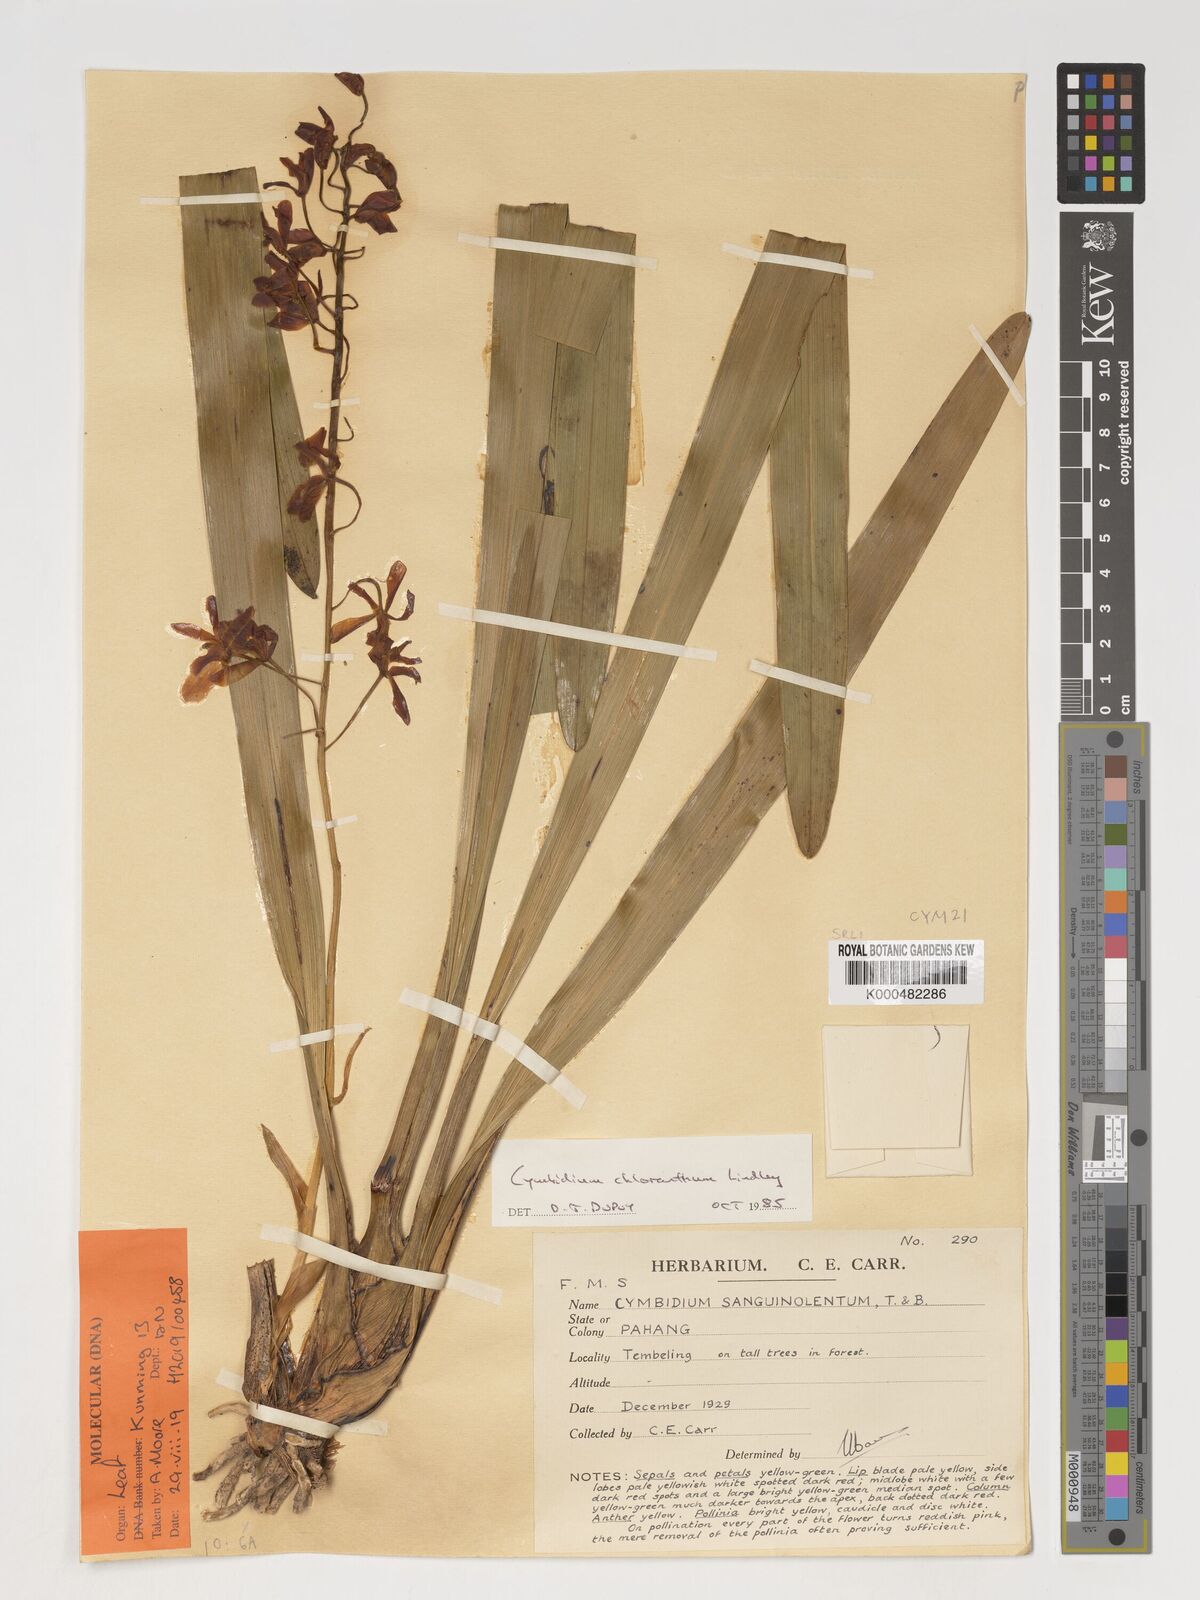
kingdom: Plantae
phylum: Tracheophyta
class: Liliopsida
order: Asparagales
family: Orchidaceae
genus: Cymbidium
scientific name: Cymbidium
